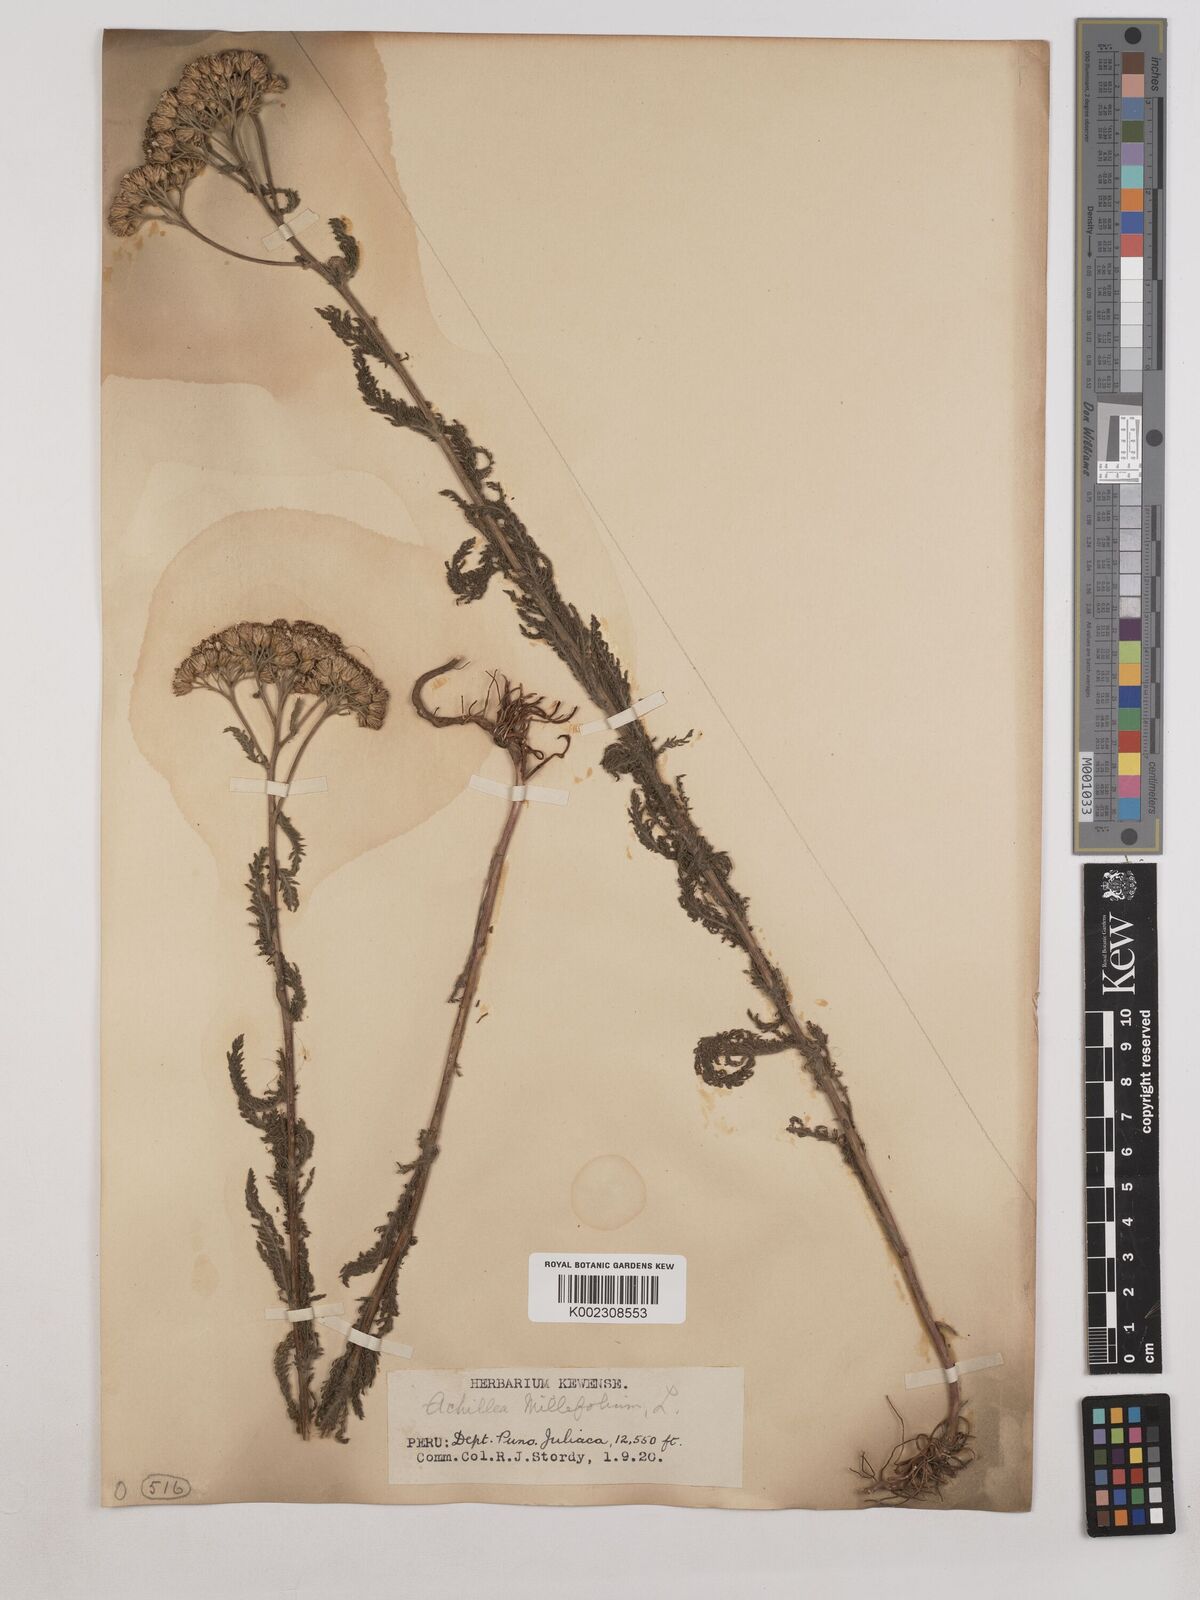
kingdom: Plantae
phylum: Tracheophyta
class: Magnoliopsida
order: Asterales
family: Asteraceae
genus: Achillea
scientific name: Achillea millefolium
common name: Yarrow
